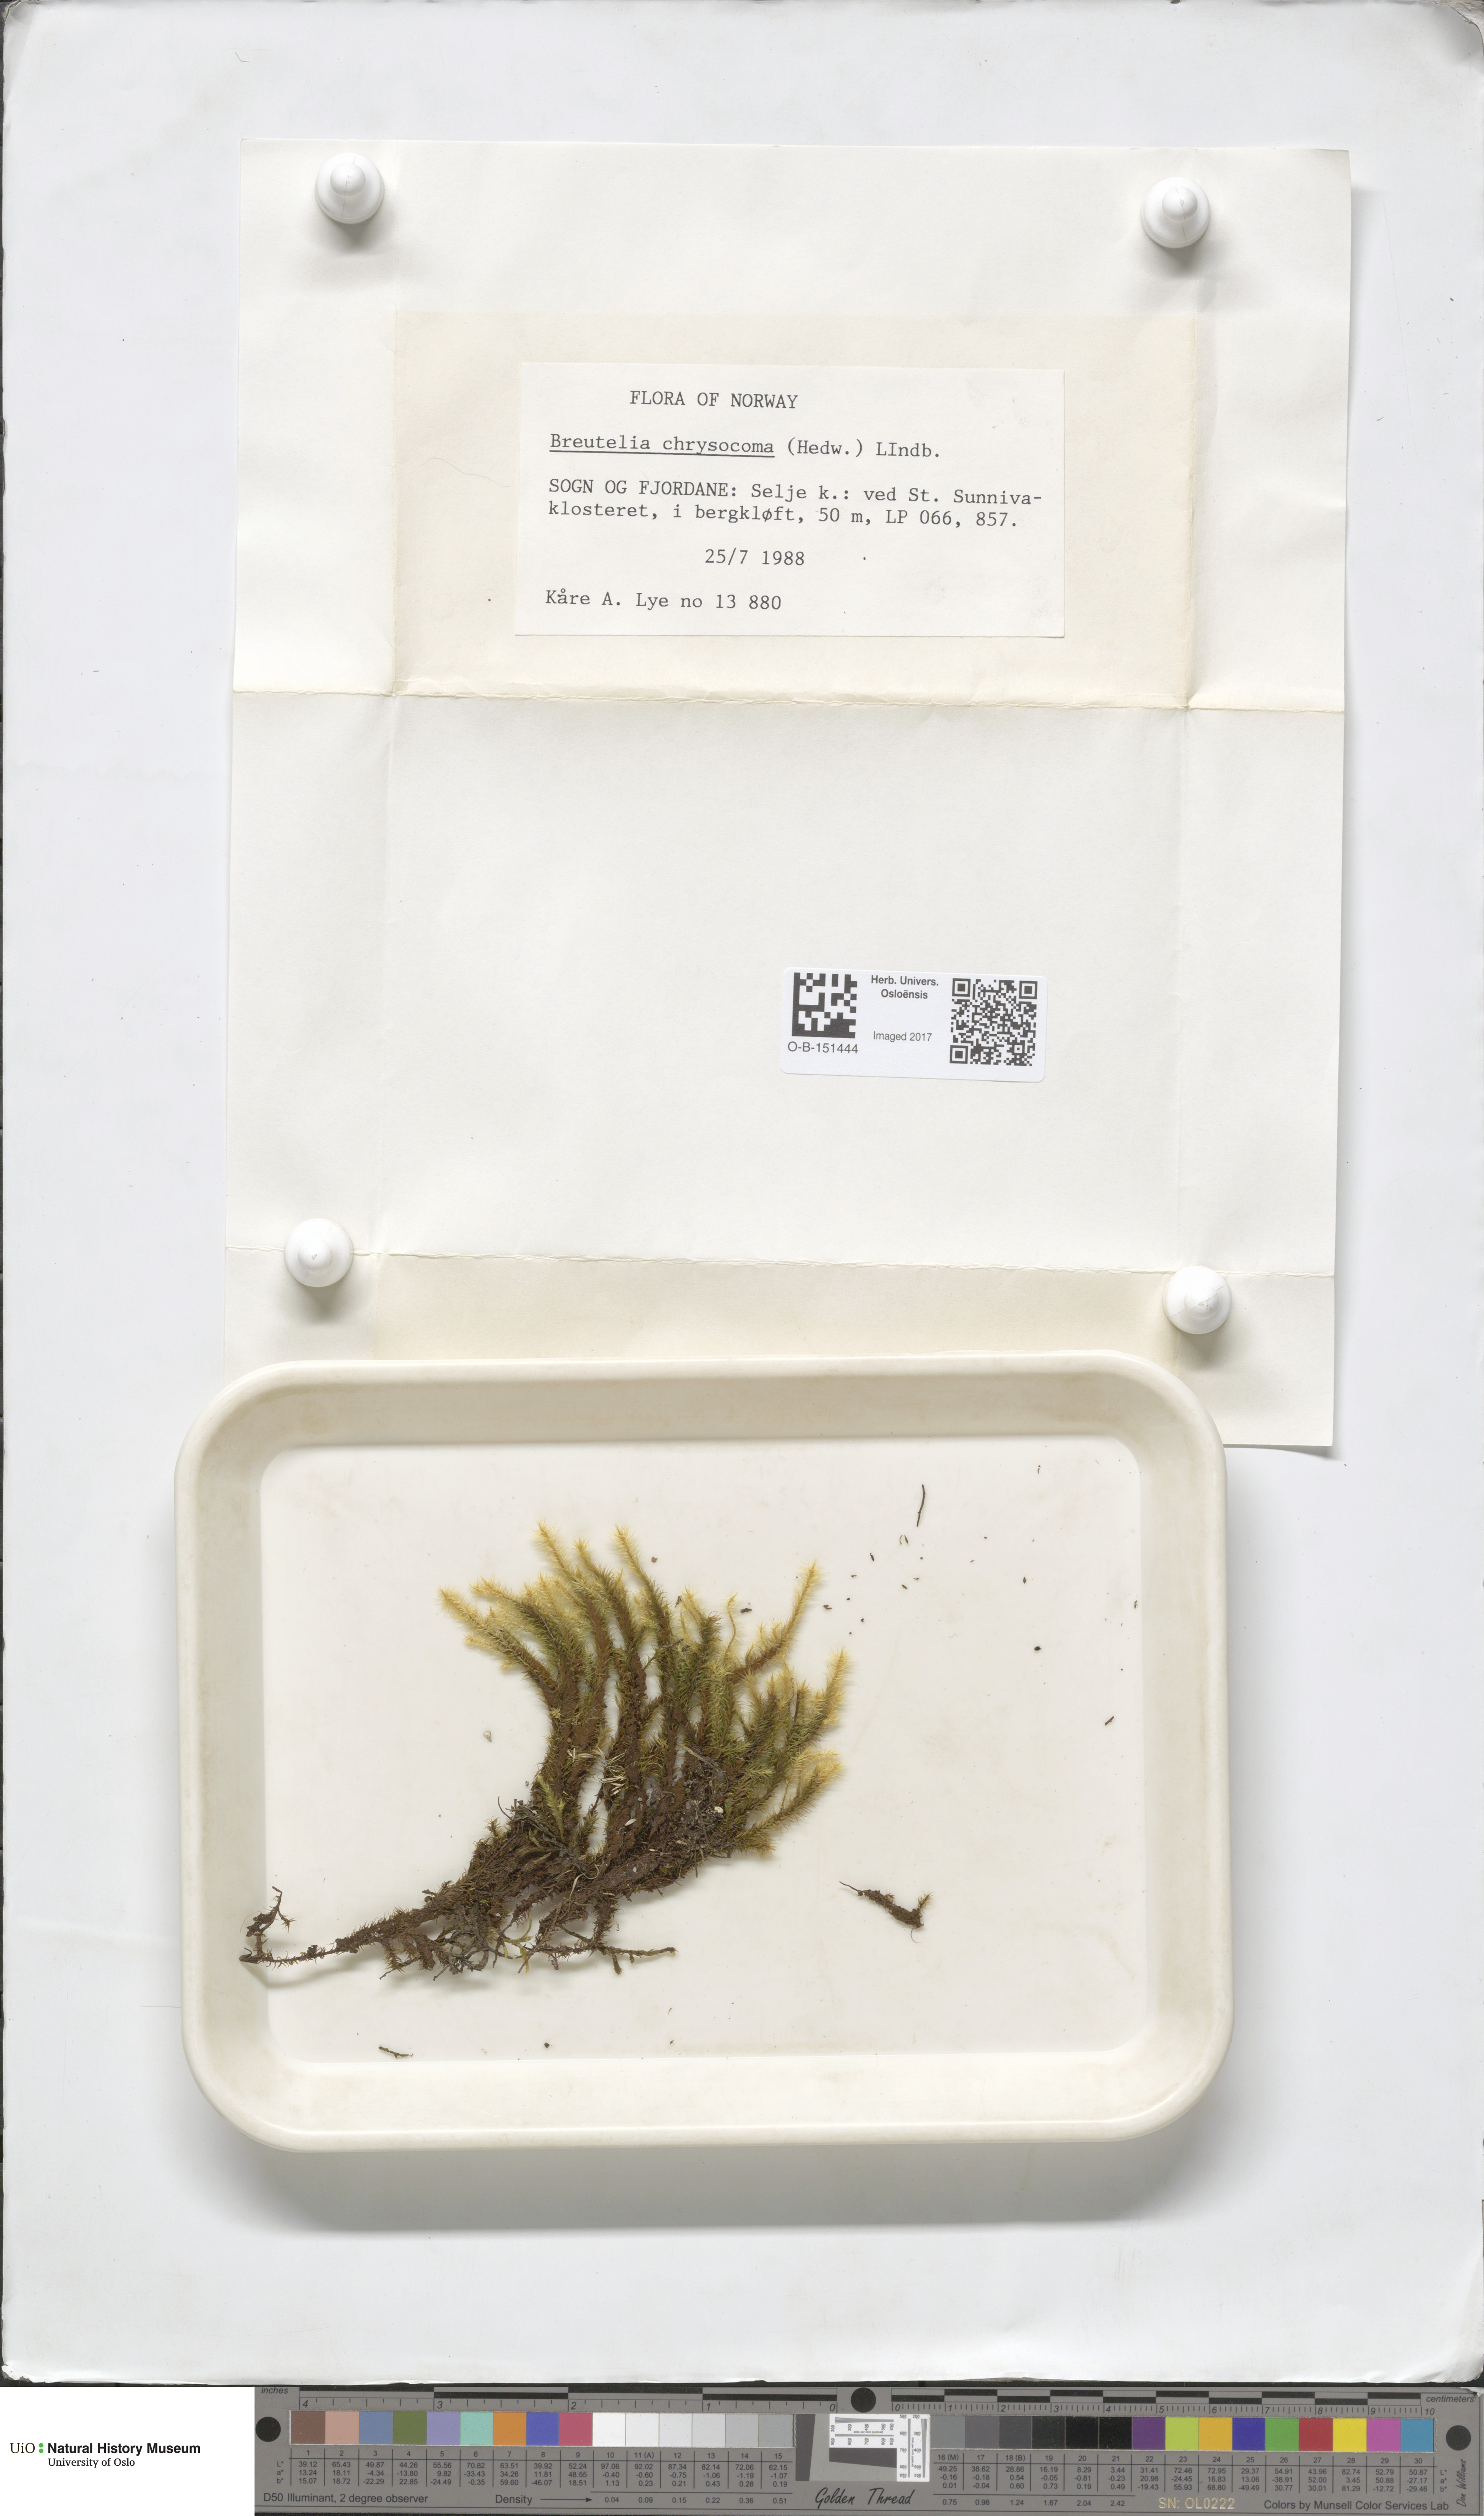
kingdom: Plantae
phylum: Bryophyta
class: Bryopsida
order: Bartramiales
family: Bartramiaceae
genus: Breutelia
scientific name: Breutelia chrysocoma
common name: Bottle-brush moss
